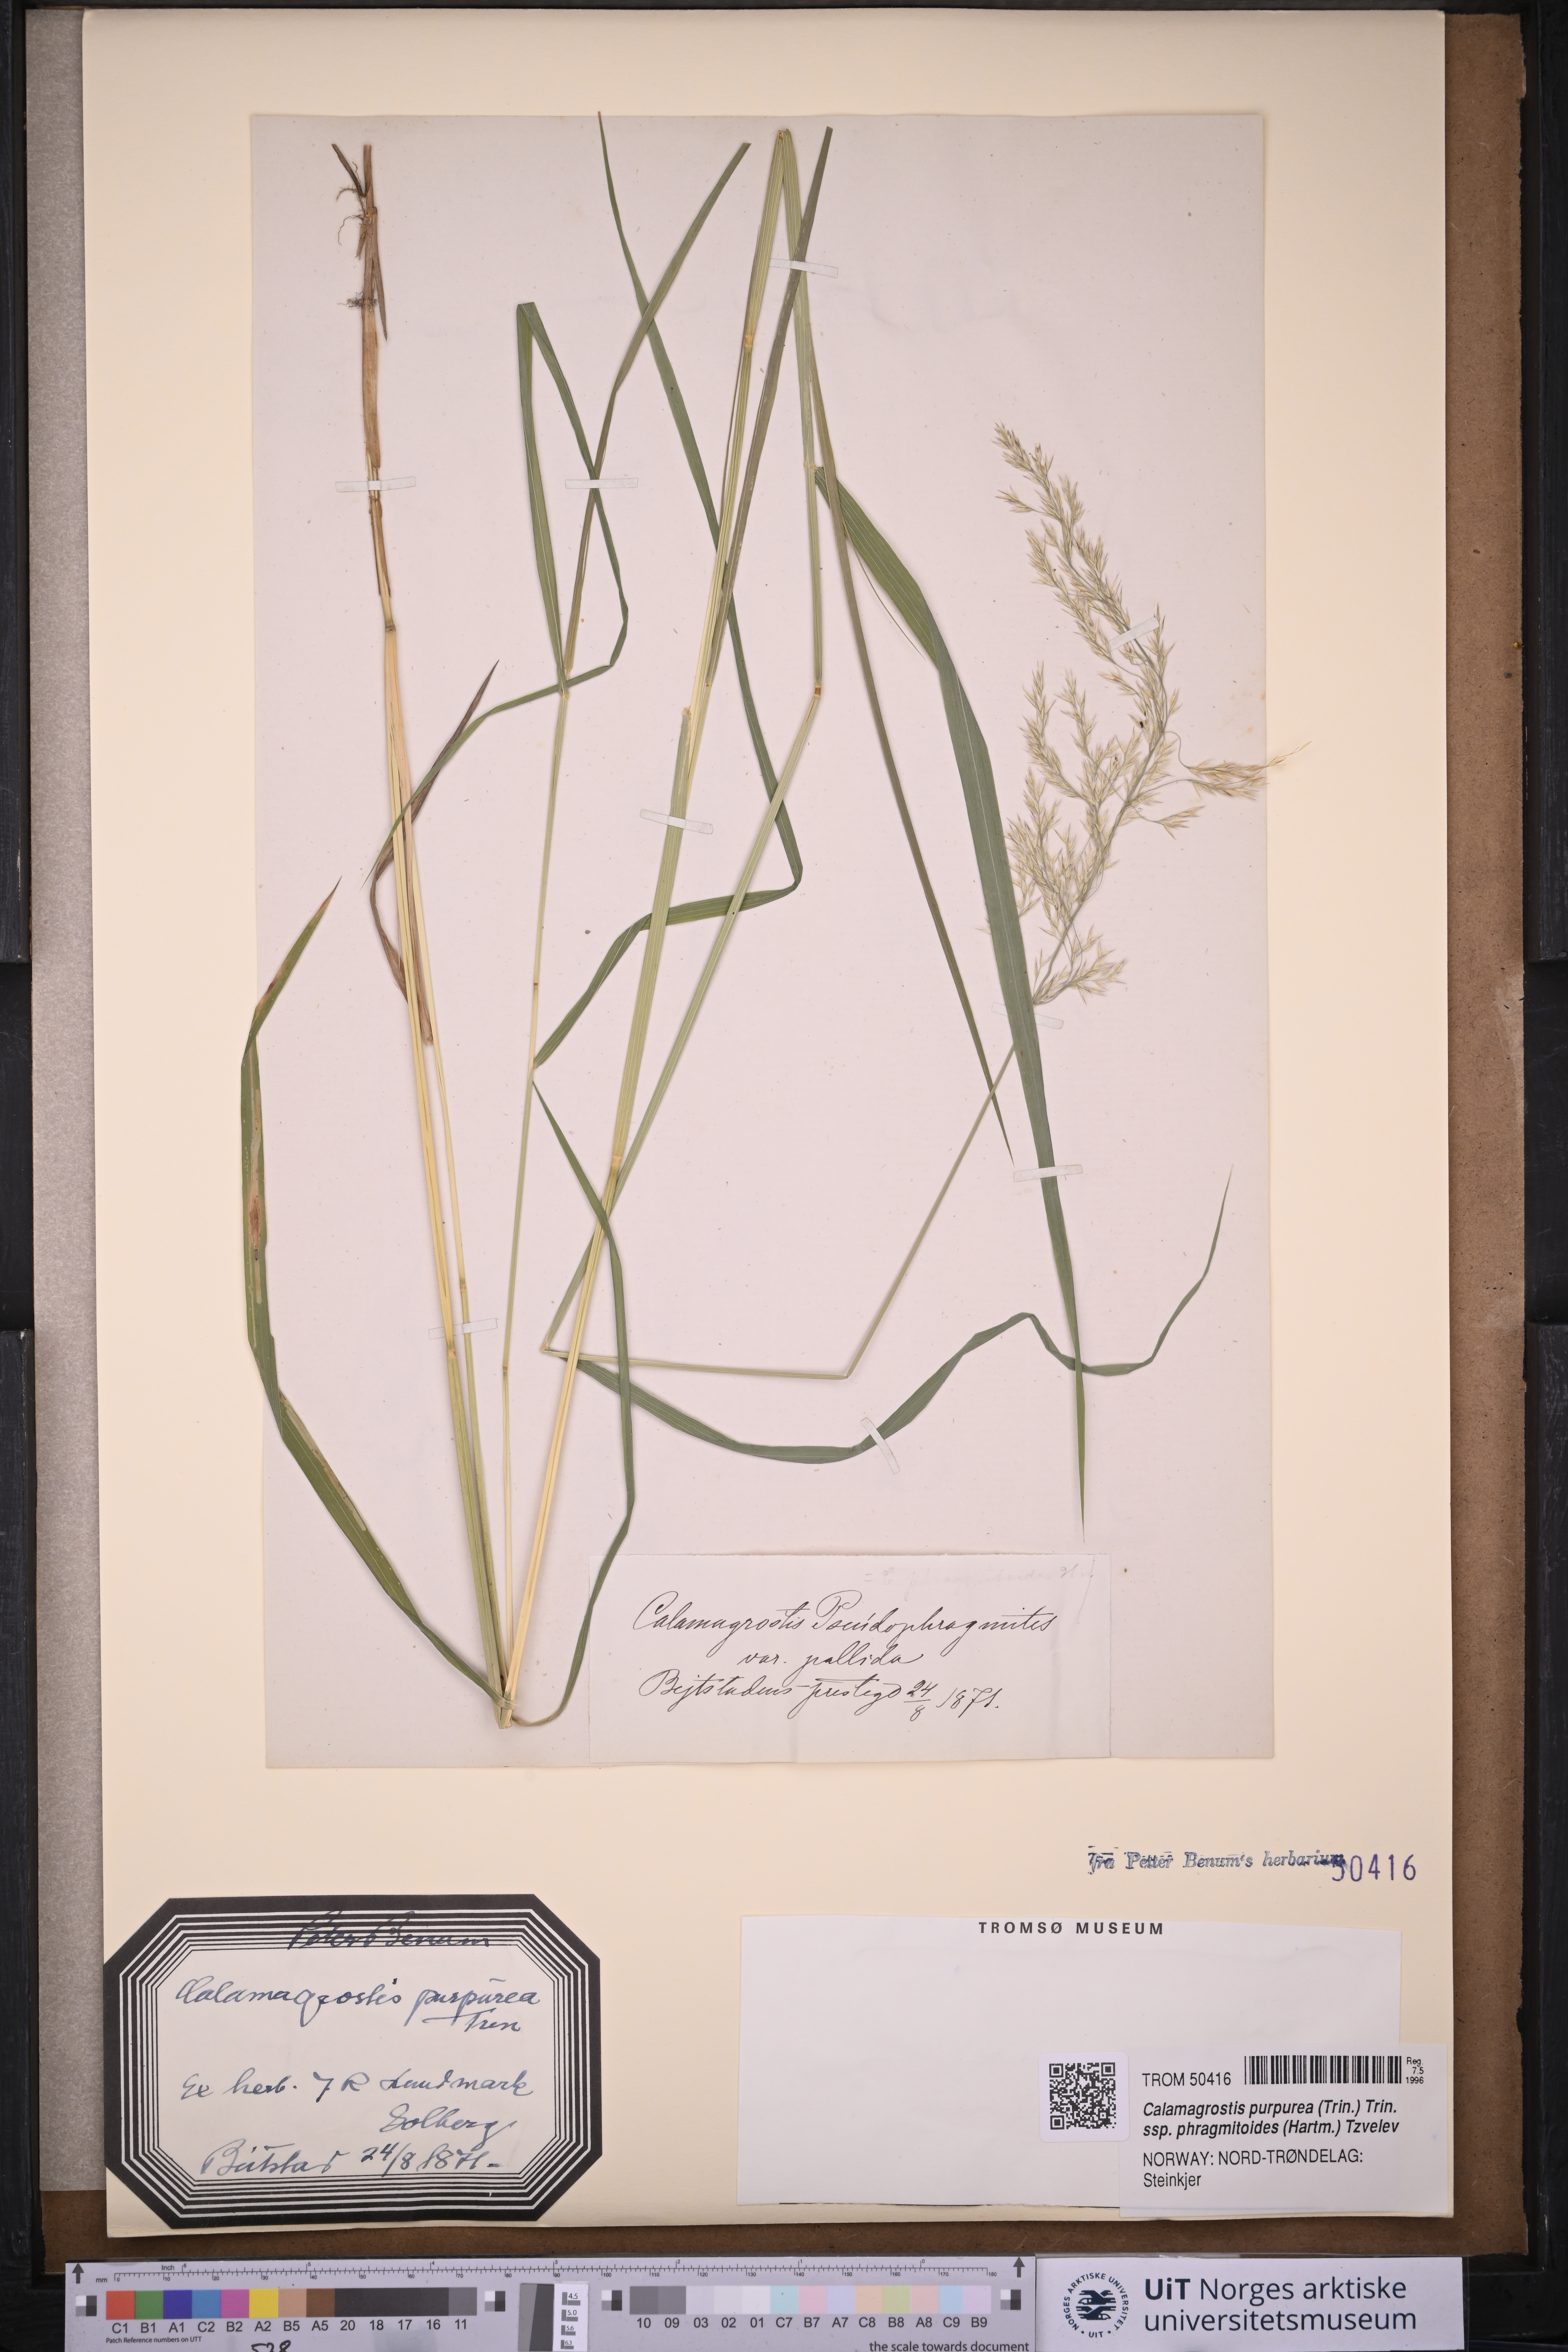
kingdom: Plantae
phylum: Tracheophyta
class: Liliopsida
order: Poales
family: Poaceae
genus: Calamagrostis
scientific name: Calamagrostis pseudophragmites
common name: Coastal small-reed
